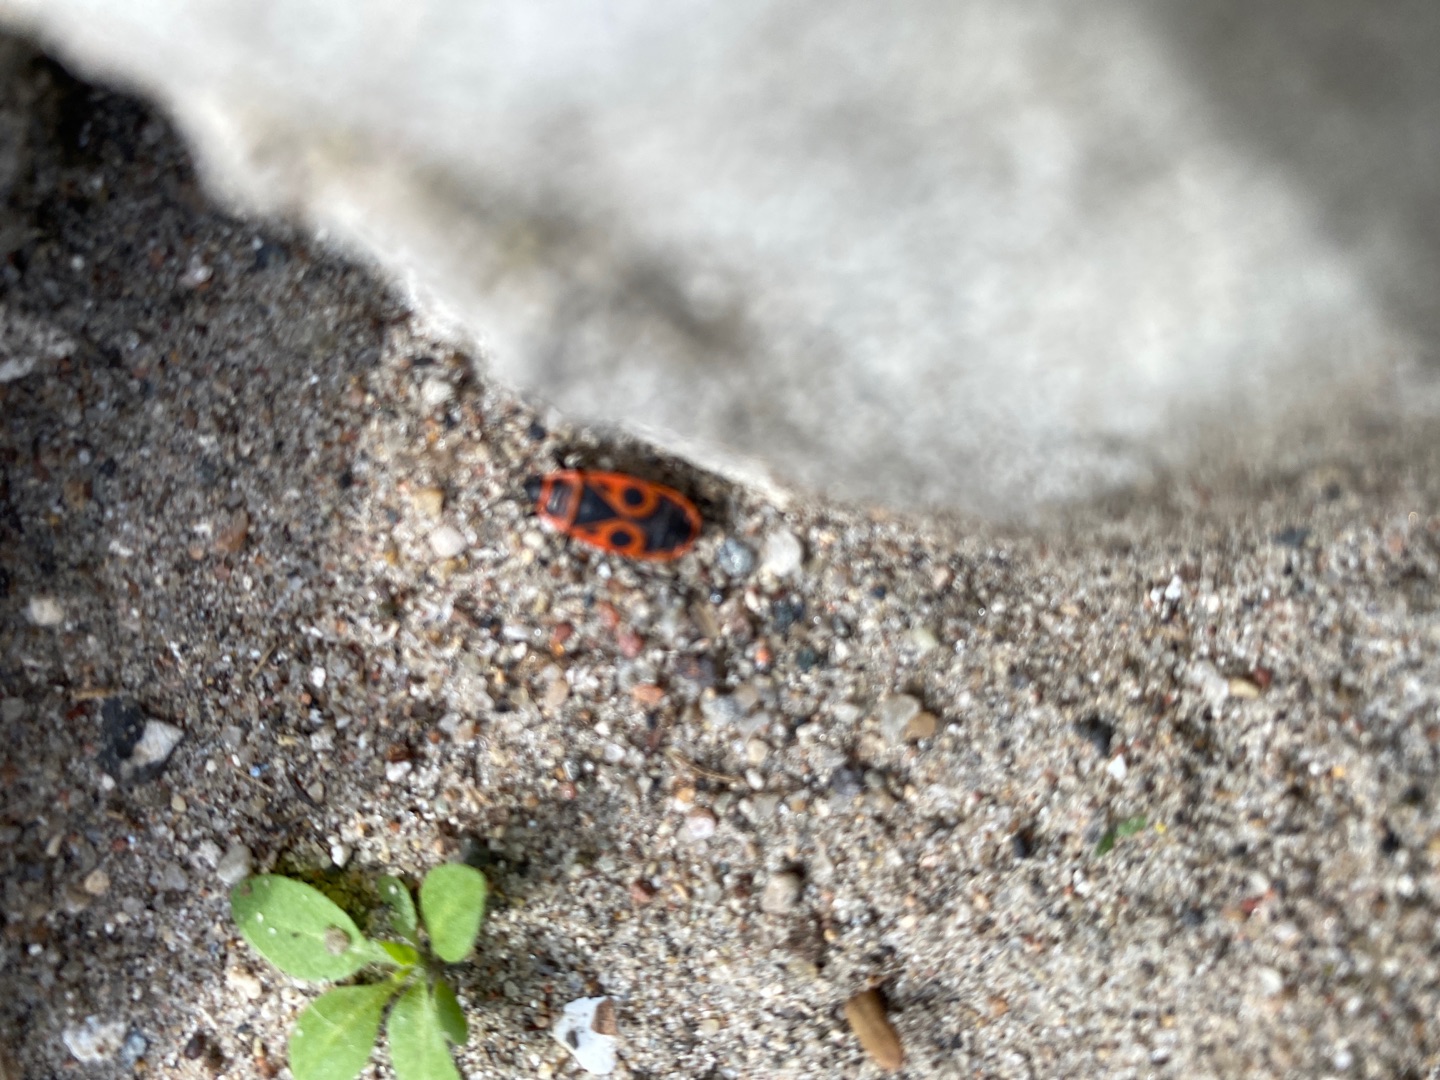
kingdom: Animalia
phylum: Arthropoda
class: Insecta
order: Hemiptera
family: Pyrrhocoridae
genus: Pyrrhocoris
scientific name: Pyrrhocoris apterus
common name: Ildtæge
